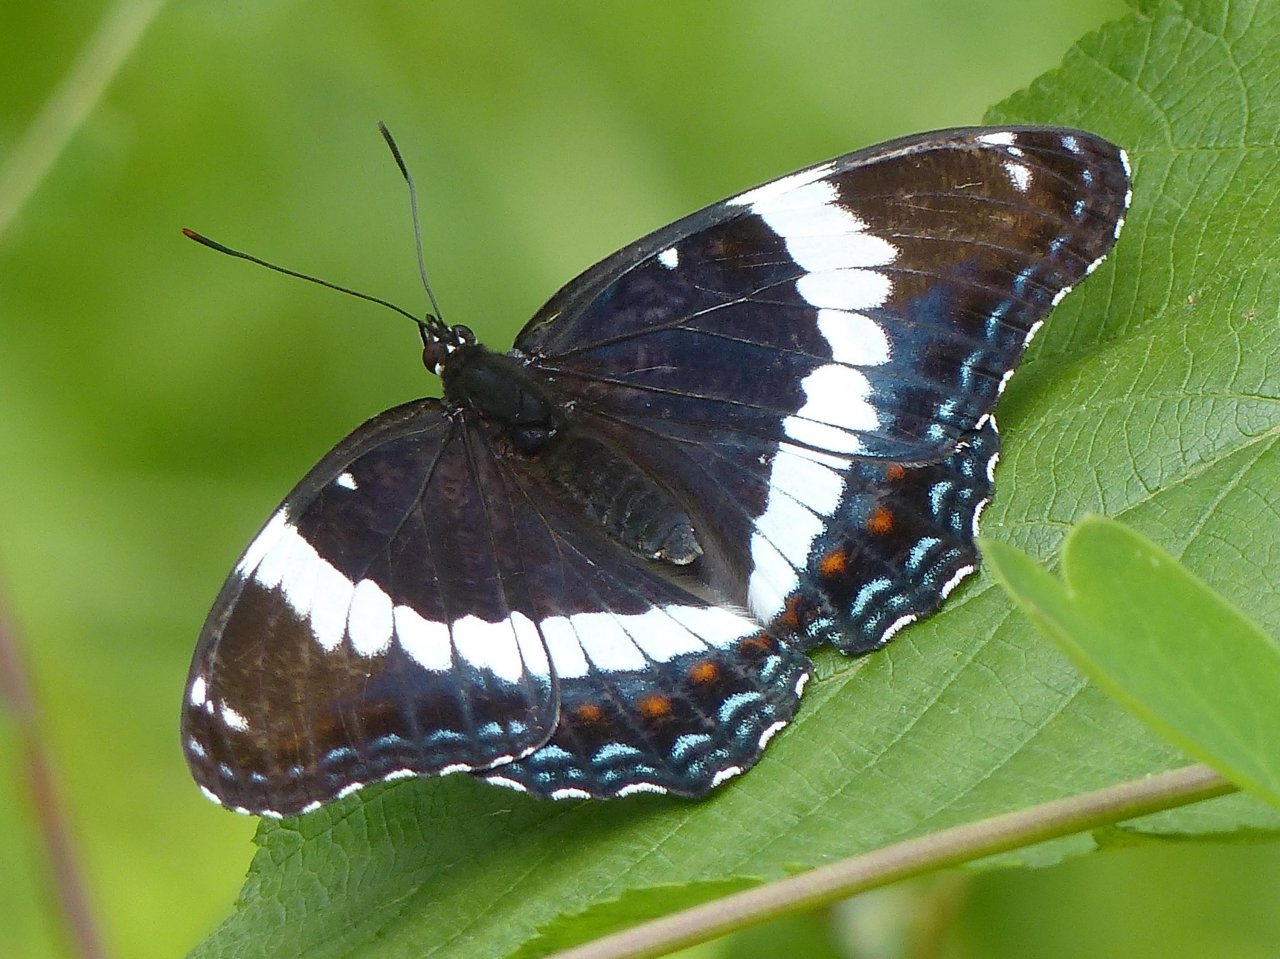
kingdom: Animalia
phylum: Arthropoda
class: Insecta
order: Lepidoptera
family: Nymphalidae
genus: Limenitis
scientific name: Limenitis arthemis
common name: Red-spotted Admiral
